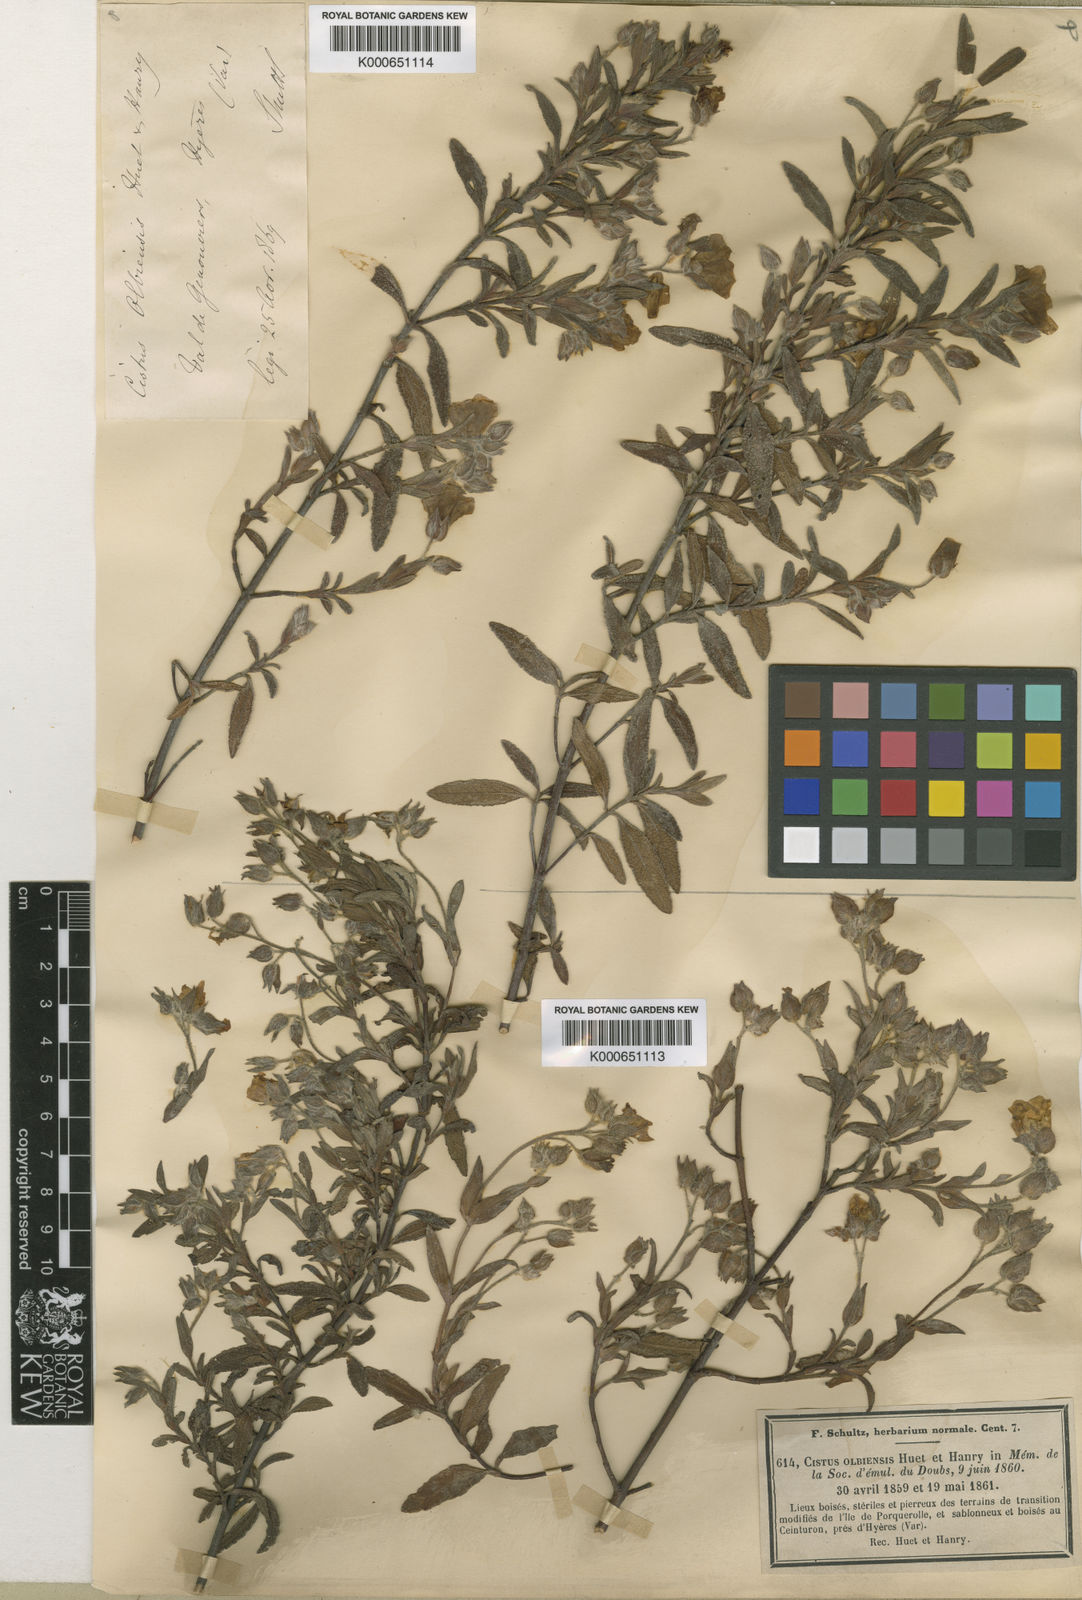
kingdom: Plantae
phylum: Tracheophyta
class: Magnoliopsida
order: Malvales
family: Cistaceae
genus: Cistus
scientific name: Cistus florentinus
